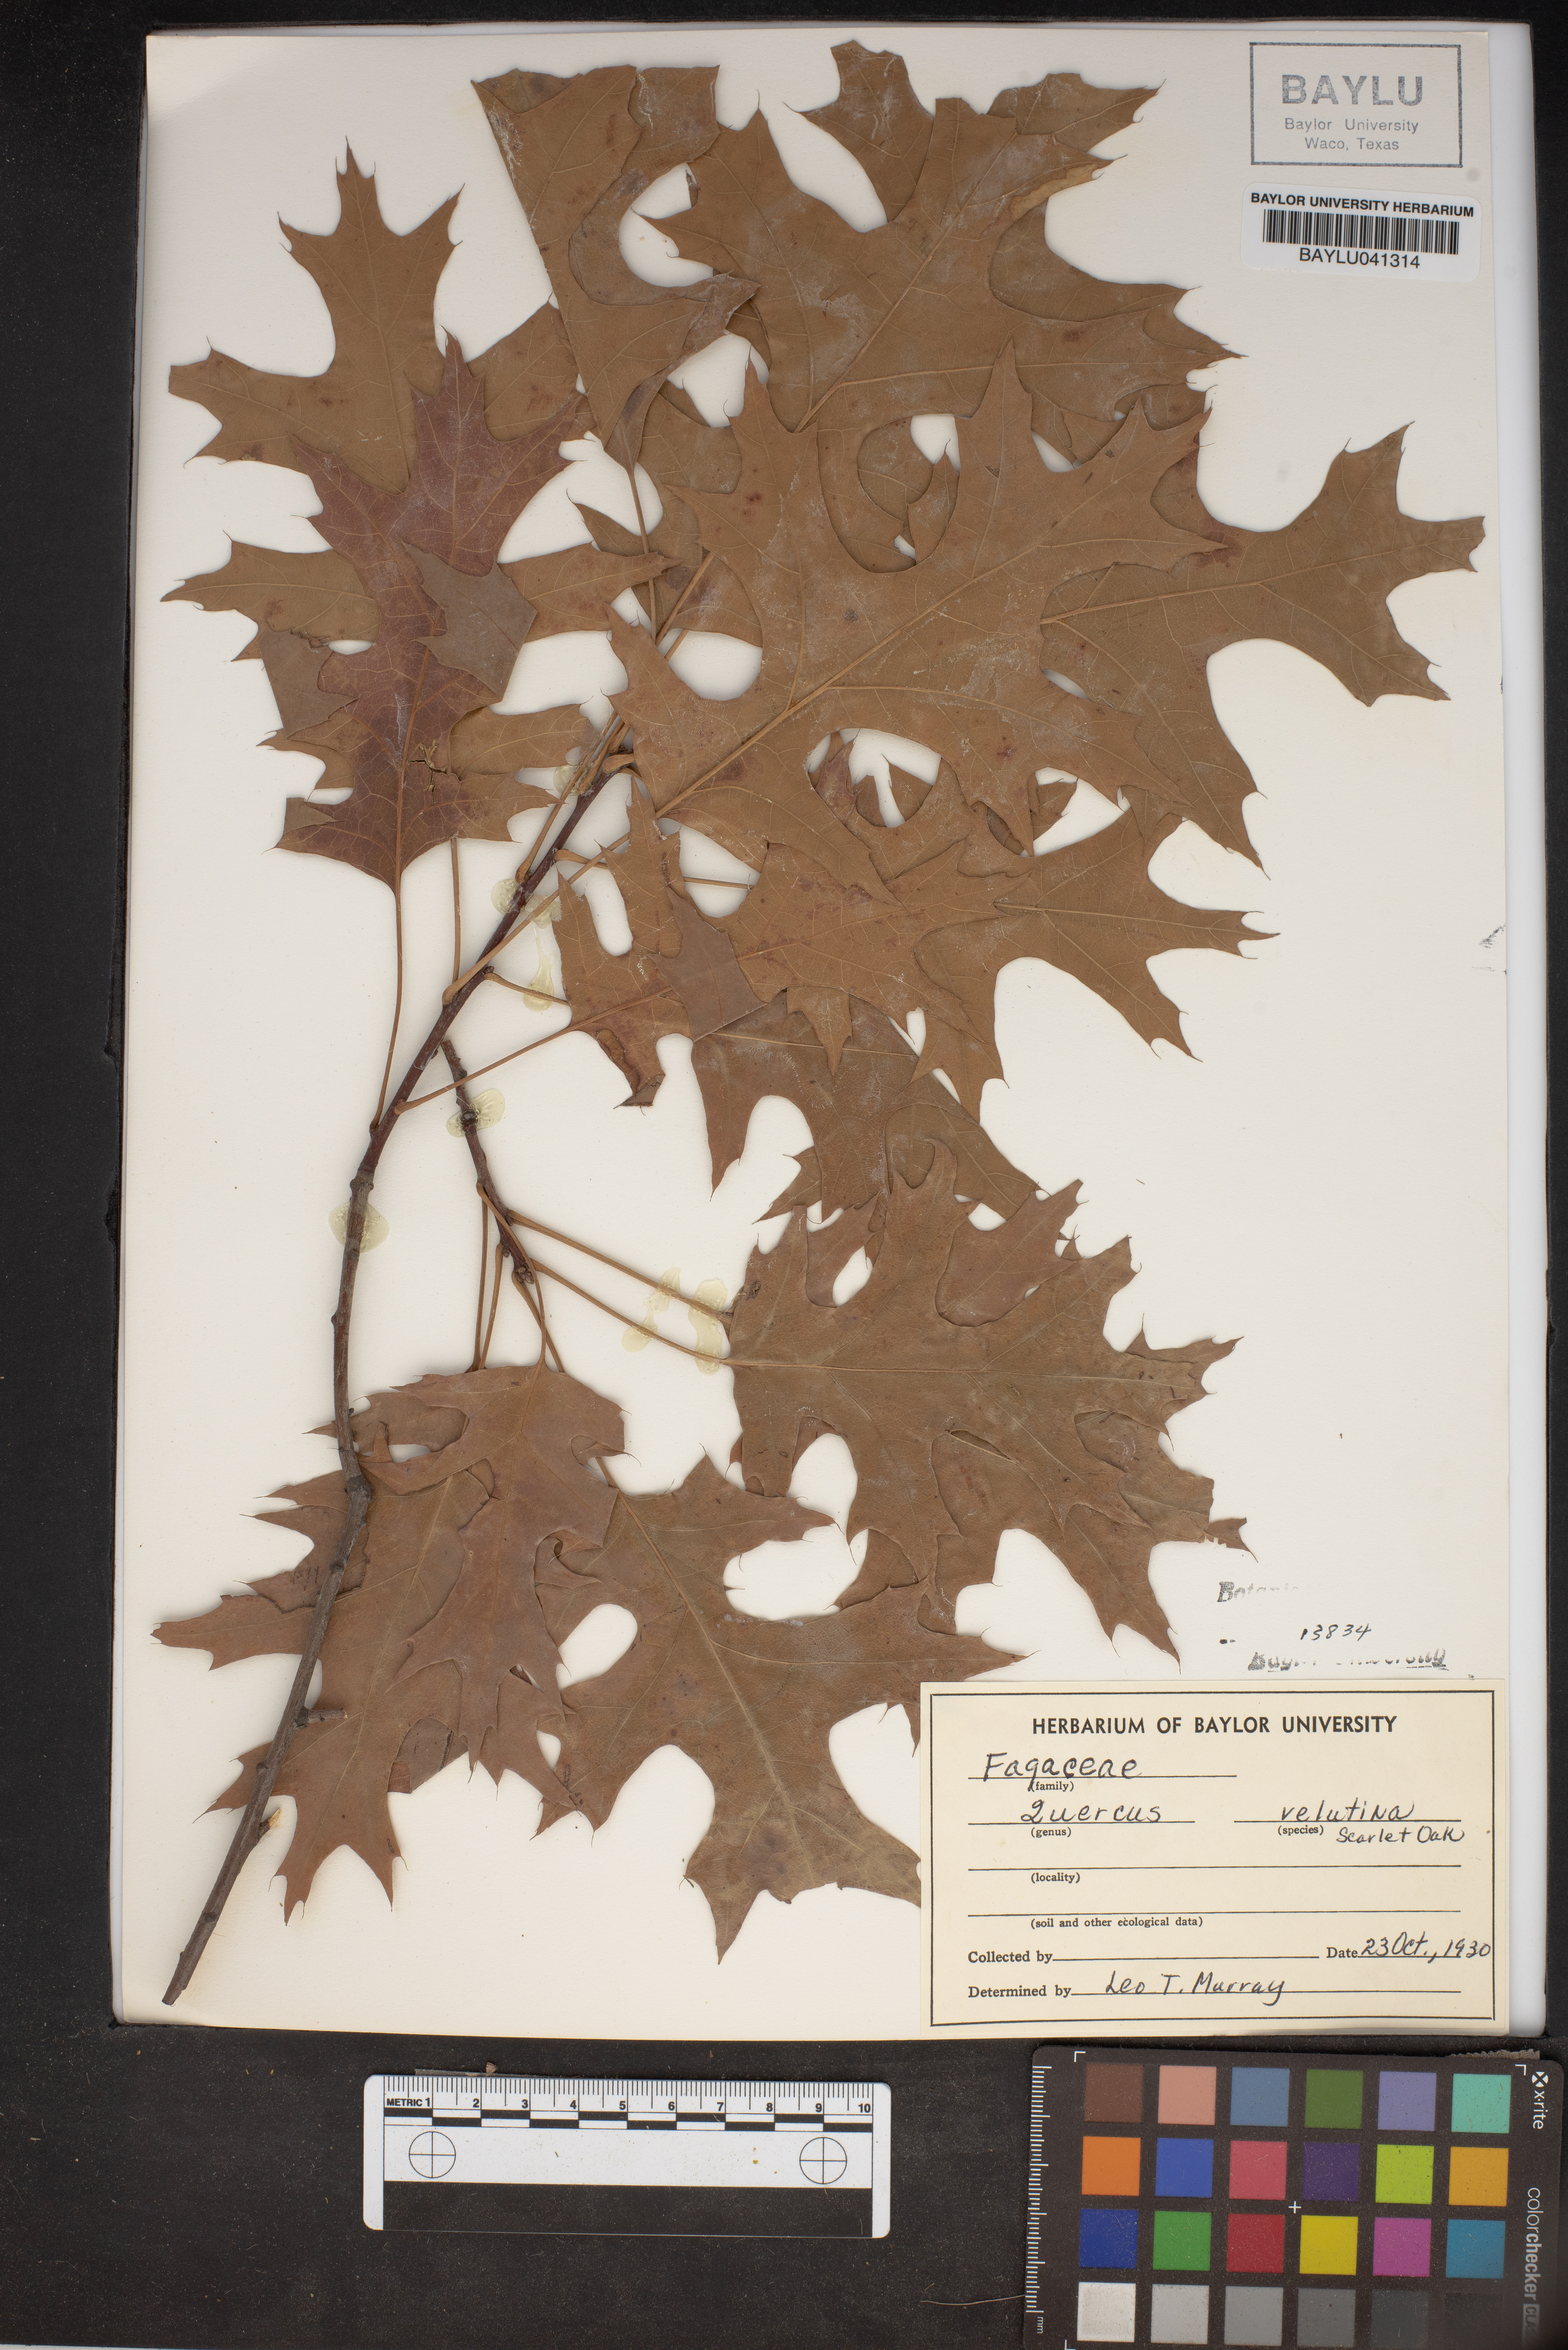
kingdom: Plantae
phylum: Tracheophyta
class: Magnoliopsida
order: Fagales
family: Fagaceae
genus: Quercus
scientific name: Quercus velutina
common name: Black oak
